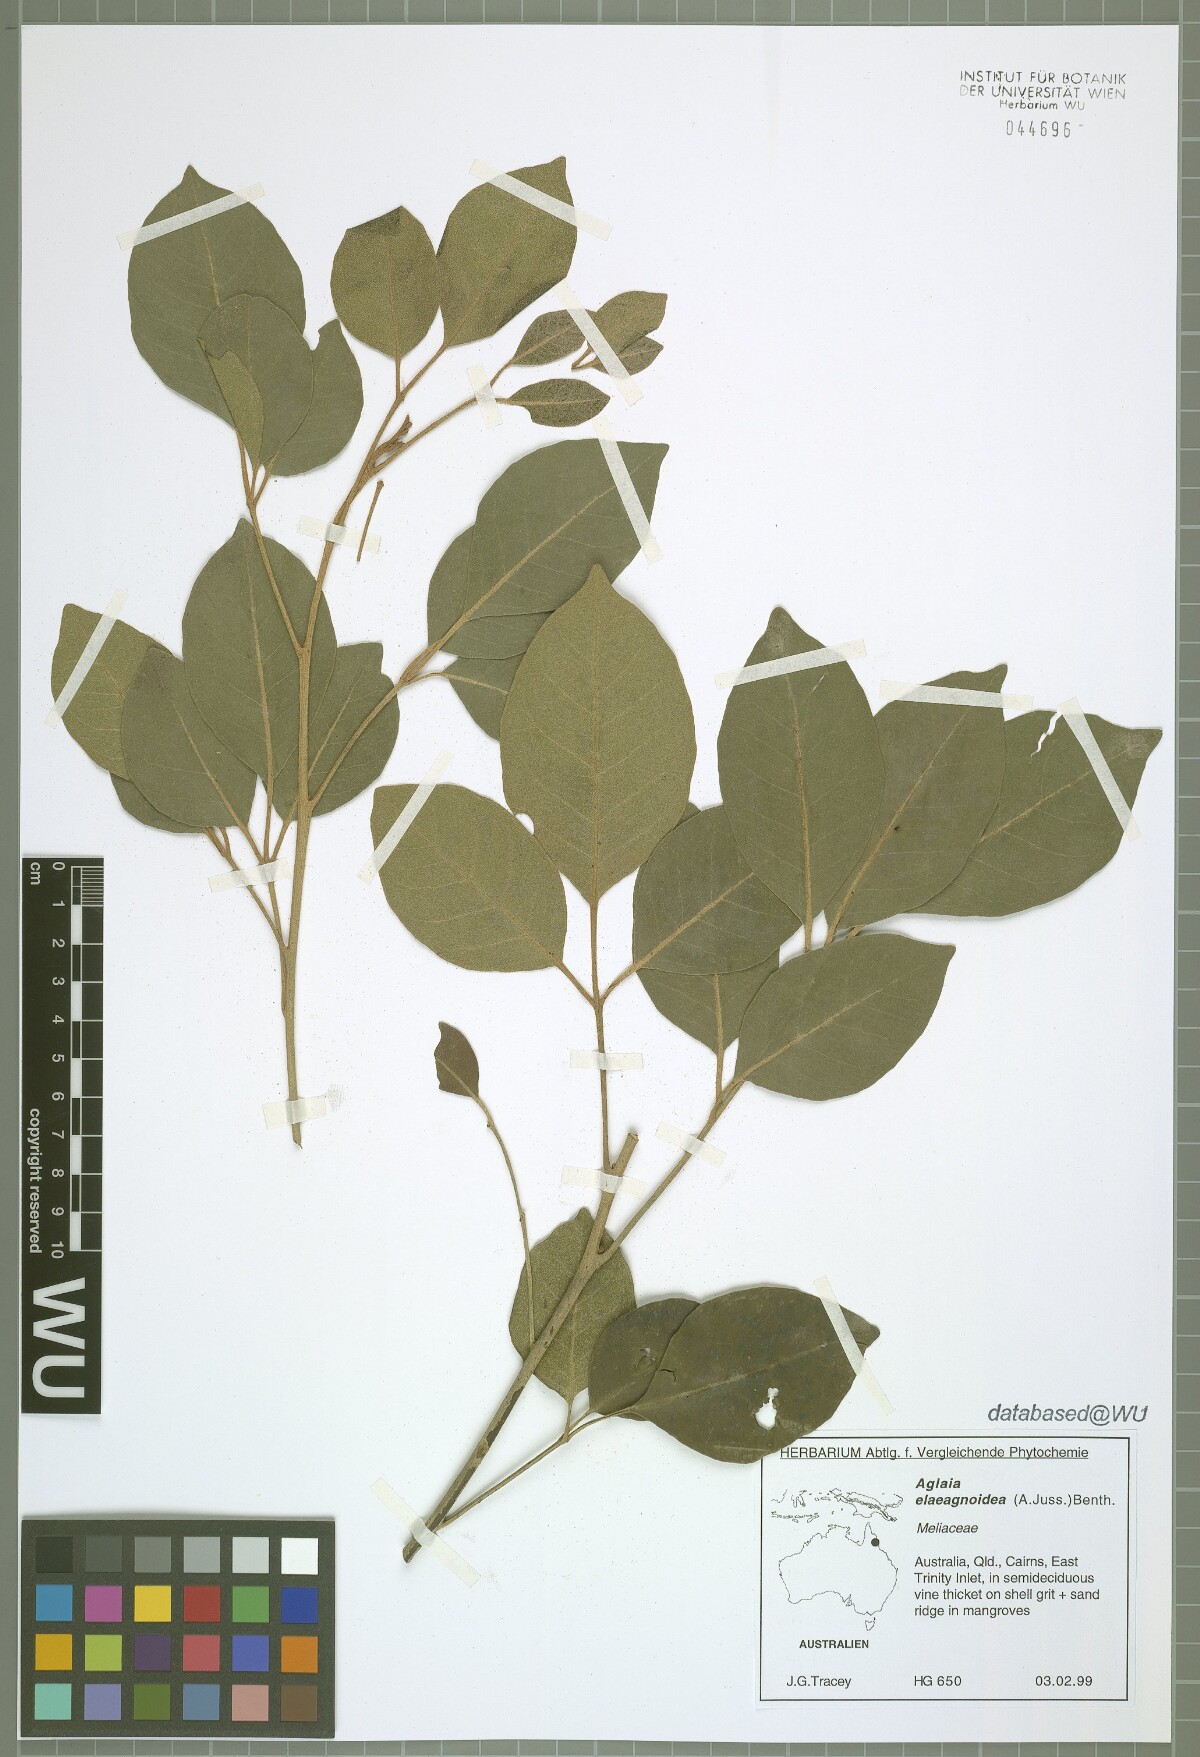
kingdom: Plantae
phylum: Tracheophyta
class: Magnoliopsida
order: Sapindales
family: Meliaceae
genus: Aglaia
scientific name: Aglaia elaeagnoidea
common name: Droopyleaf
